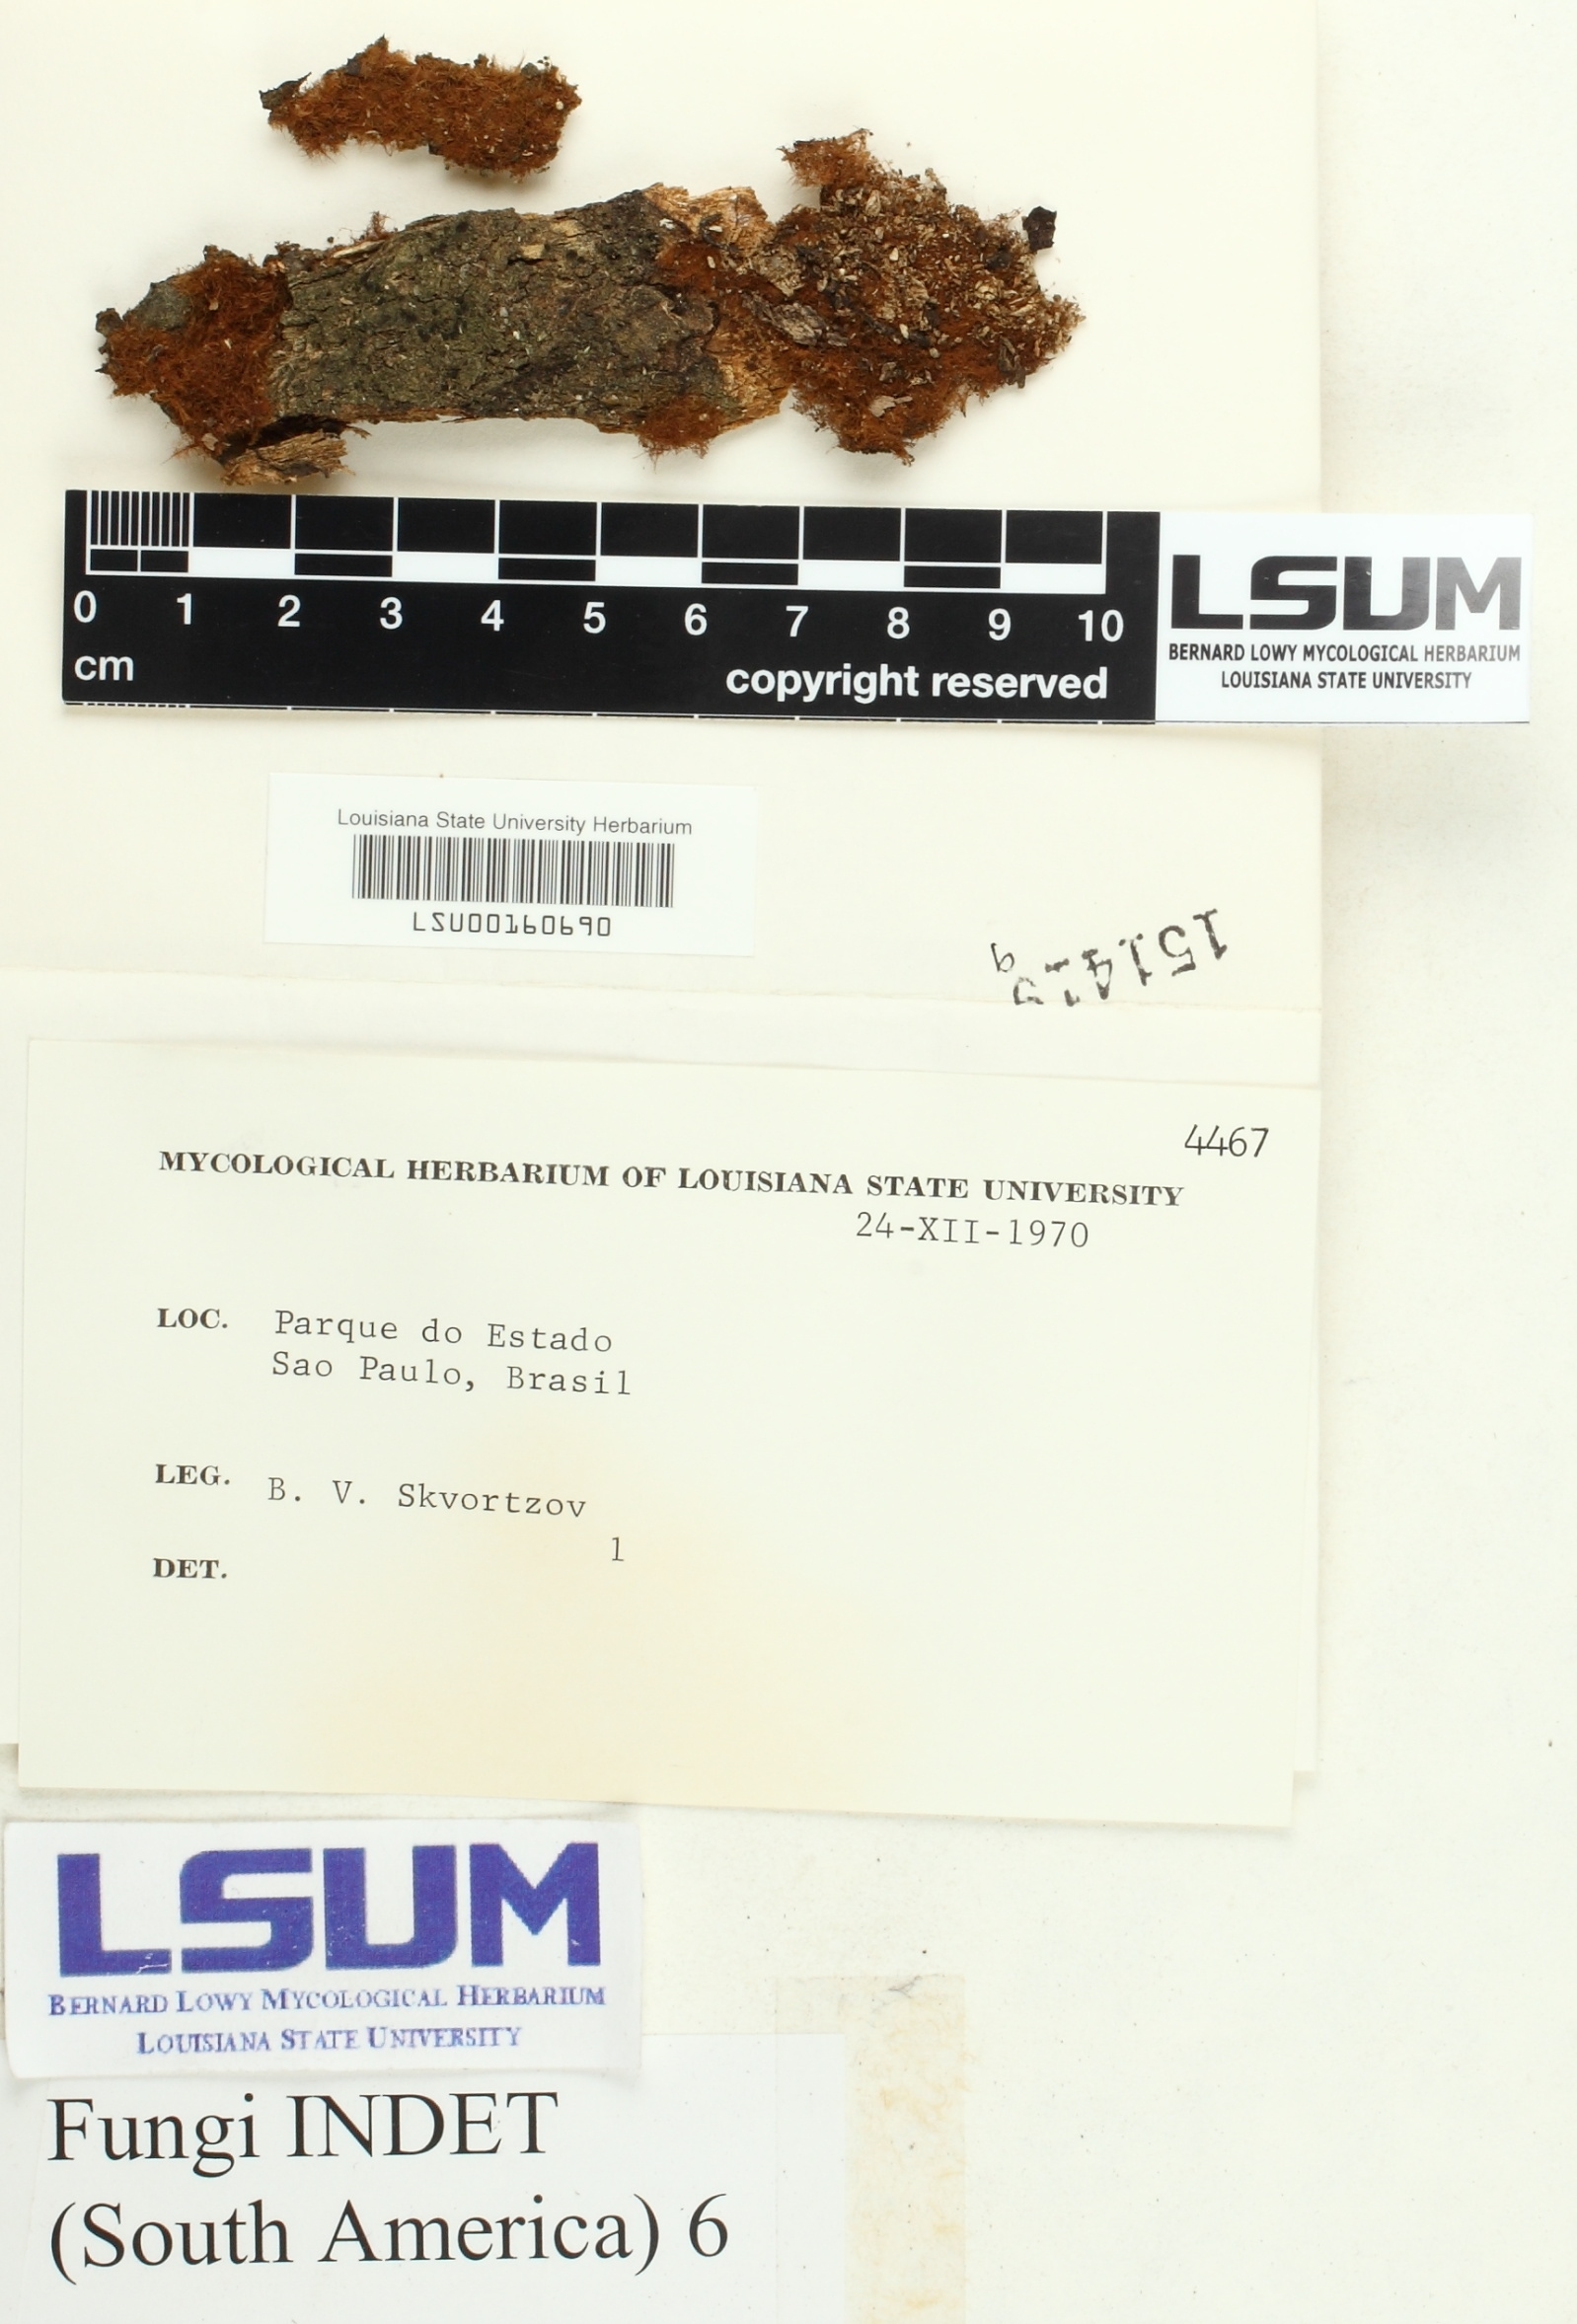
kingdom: Fungi
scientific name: Fungi
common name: Fungi
